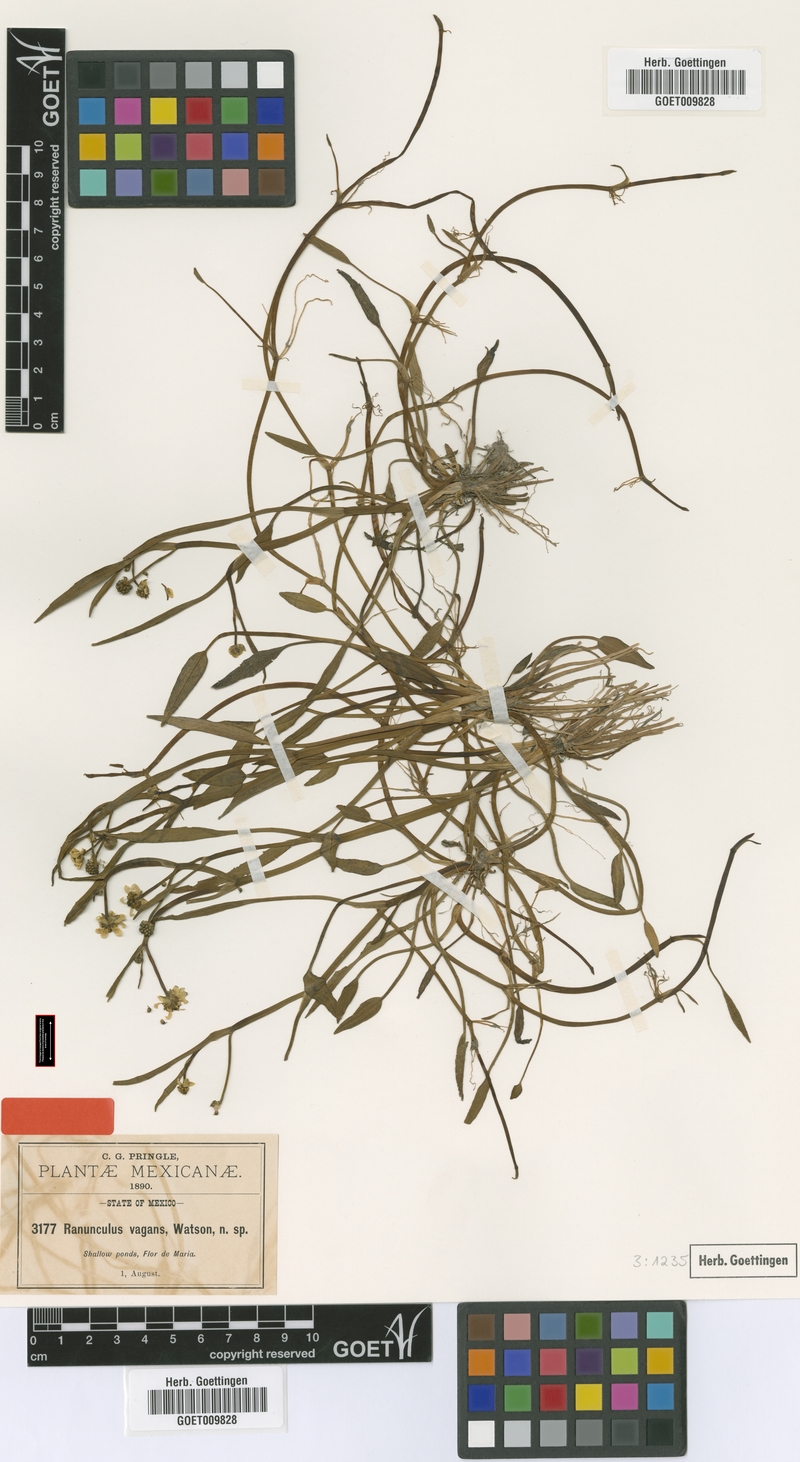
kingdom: Plantae
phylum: Tracheophyta
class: Magnoliopsida
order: Ranunculales
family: Ranunculaceae
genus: Ranunculus
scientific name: Ranunculus hydrocharoides
